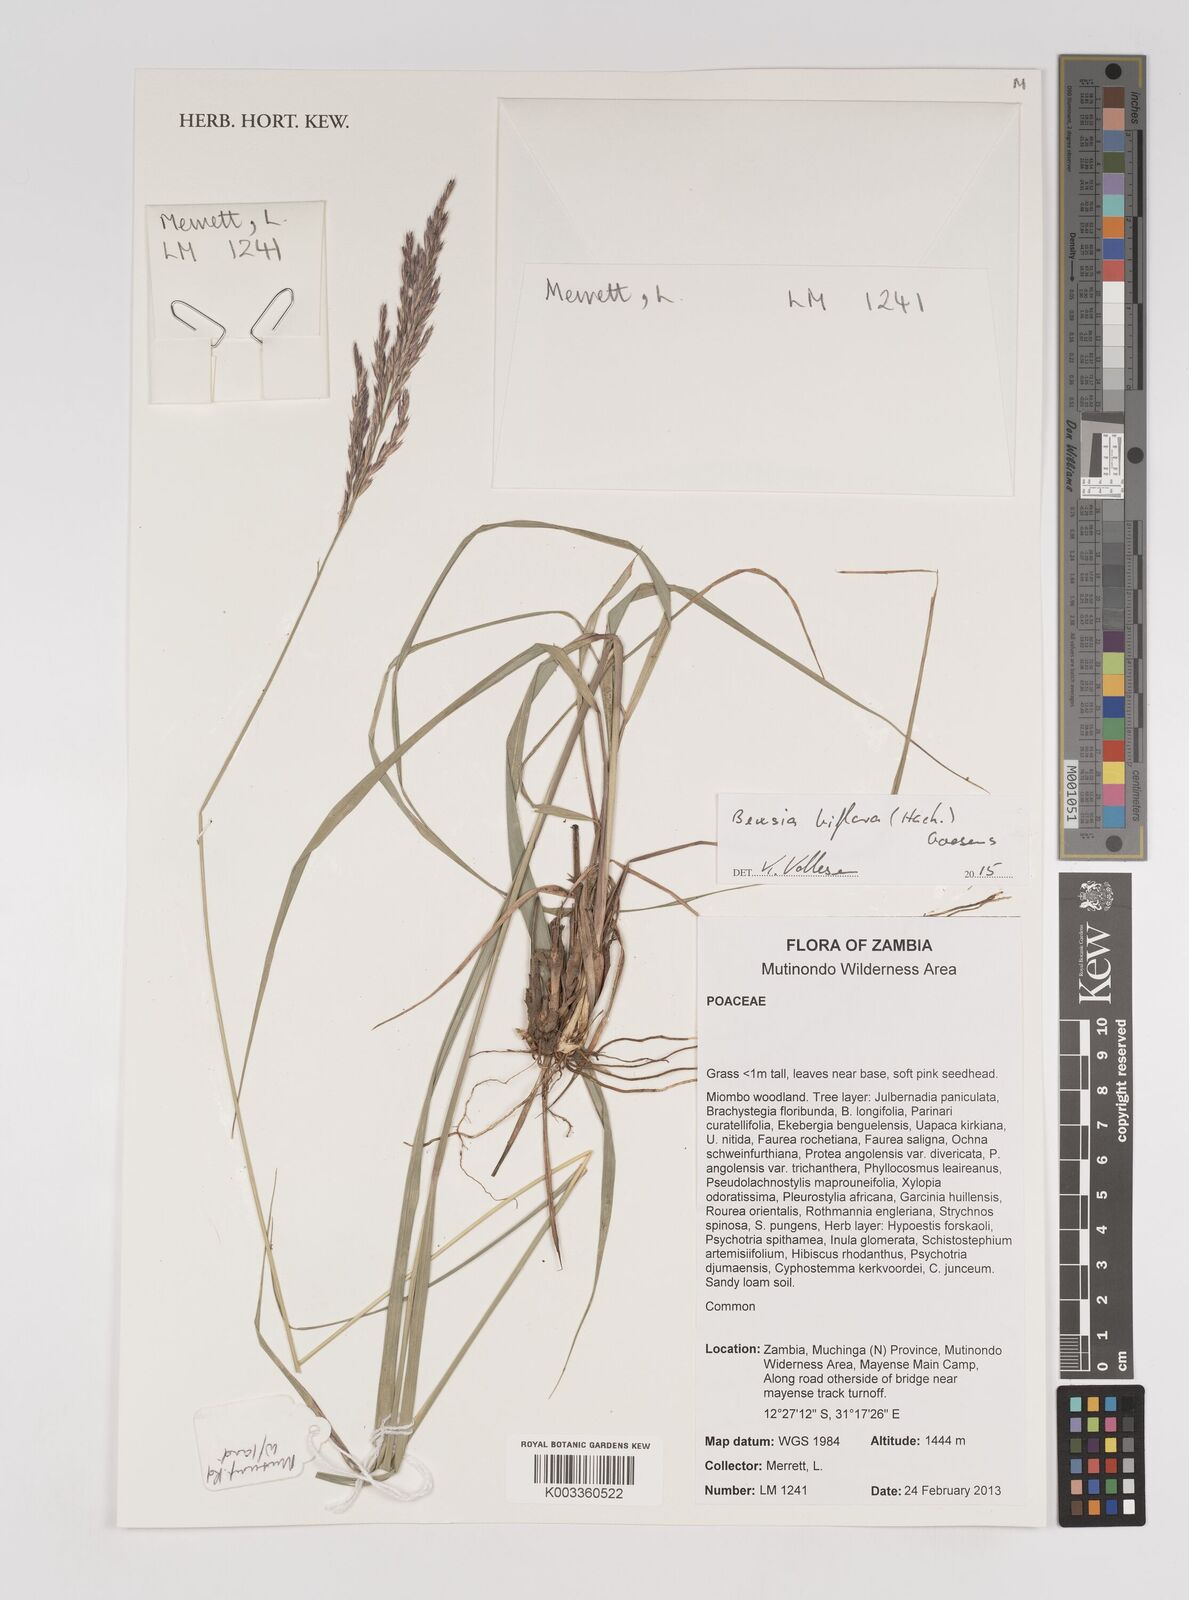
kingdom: Plantae
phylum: Tracheophyta
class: Liliopsida
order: Poales
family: Poaceae
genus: Bewsia
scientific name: Bewsia biflora
